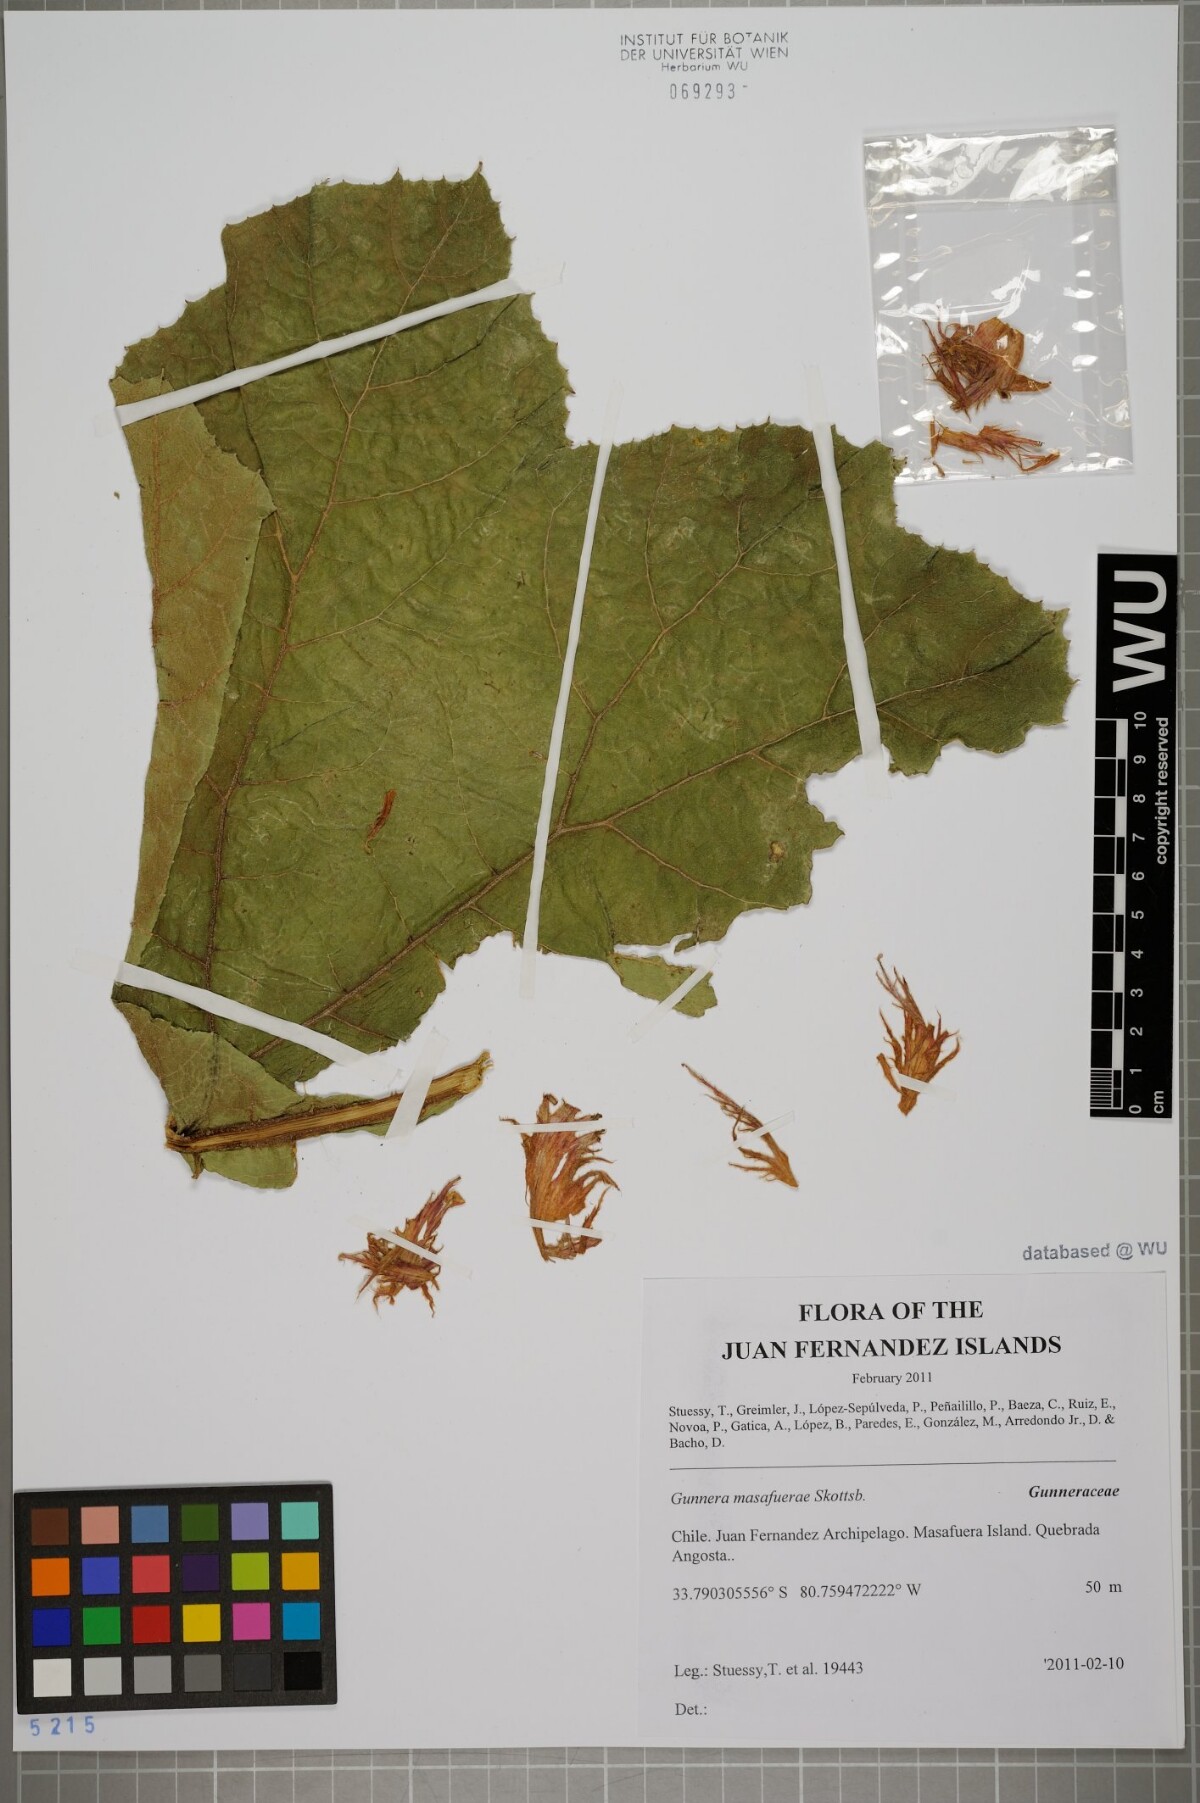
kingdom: Plantae
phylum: Tracheophyta
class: Magnoliopsida
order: Gunnerales
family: Gunneraceae
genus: Gunnera
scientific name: Gunnera masafuerae
